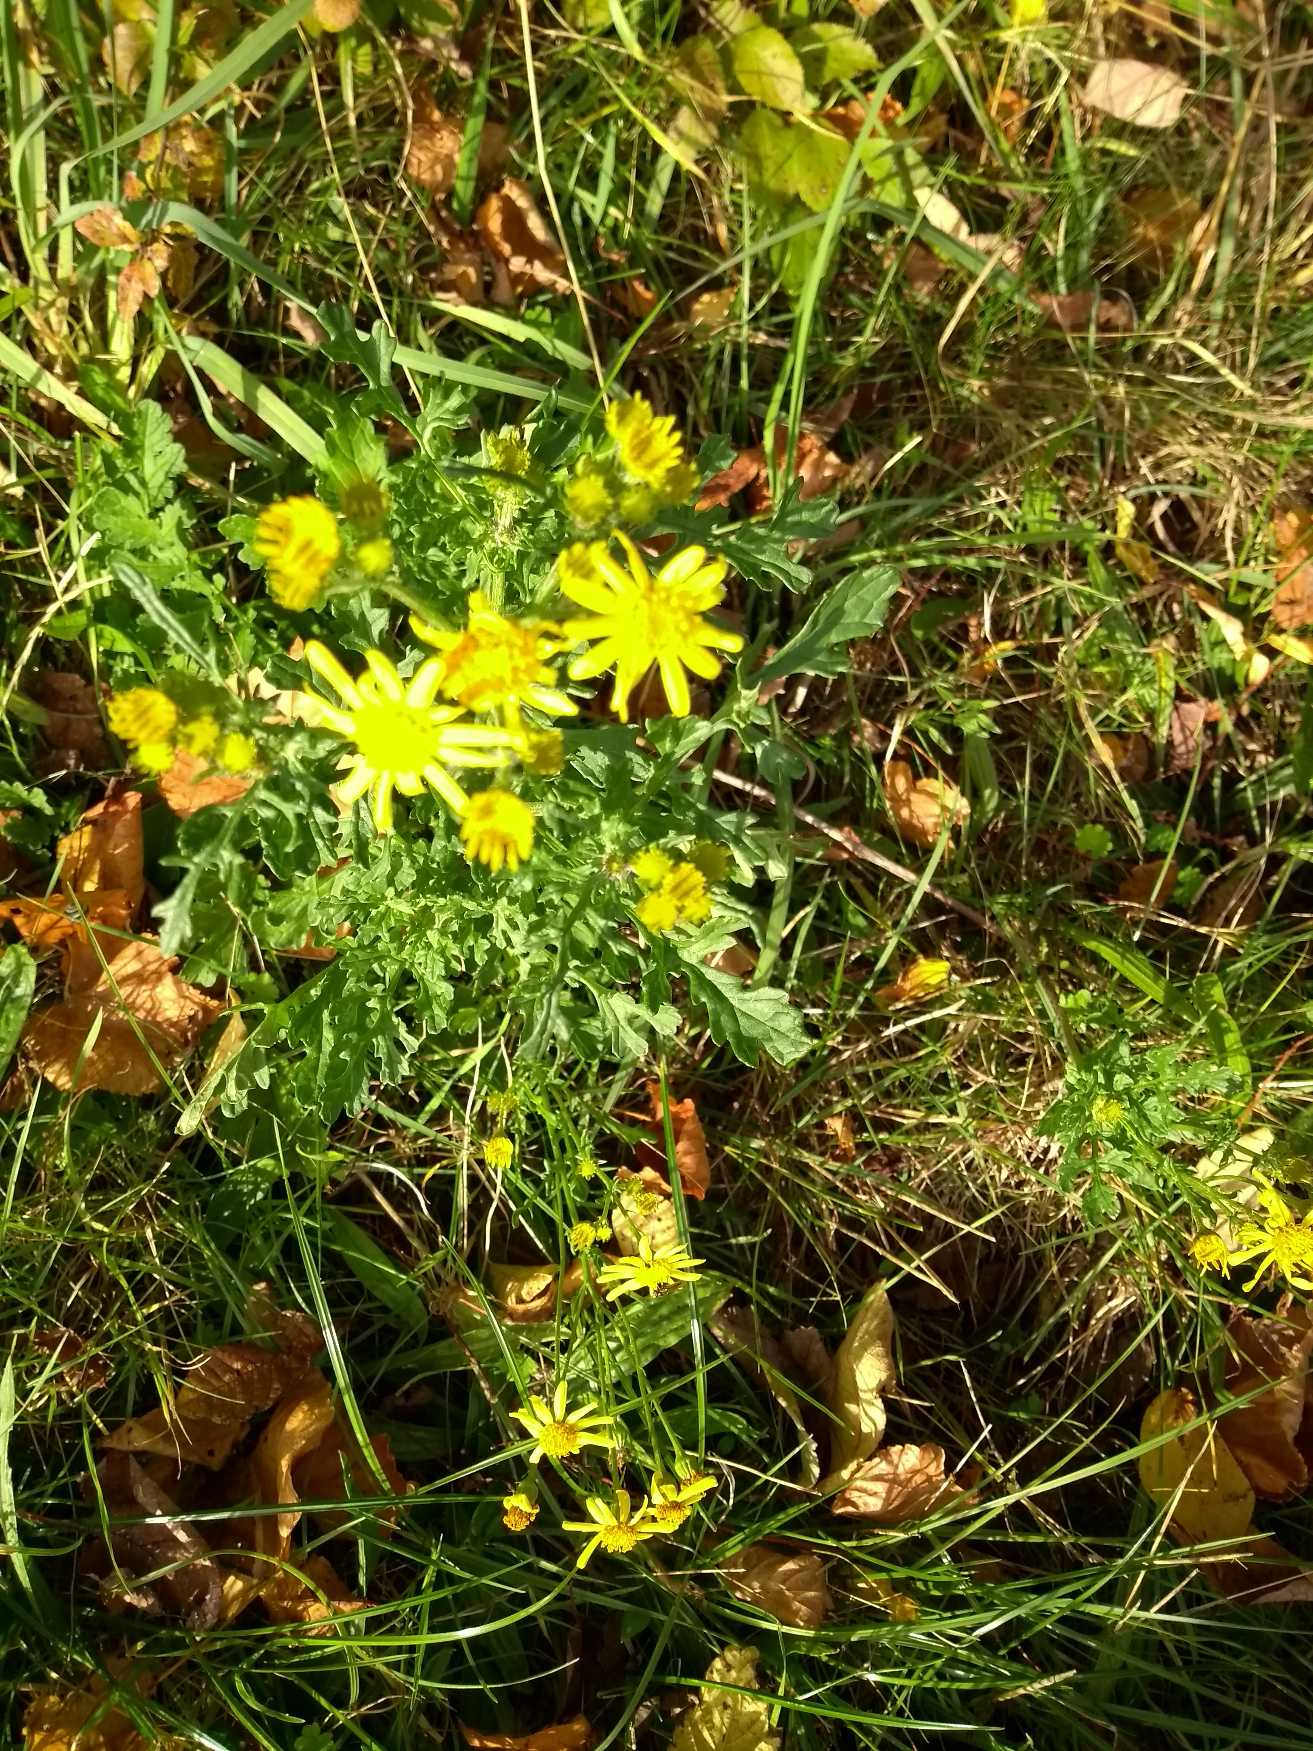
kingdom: Plantae
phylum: Tracheophyta
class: Magnoliopsida
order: Asterales
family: Asteraceae
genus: Jacobaea
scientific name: Jacobaea vulgaris
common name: Eng-brandbæger
